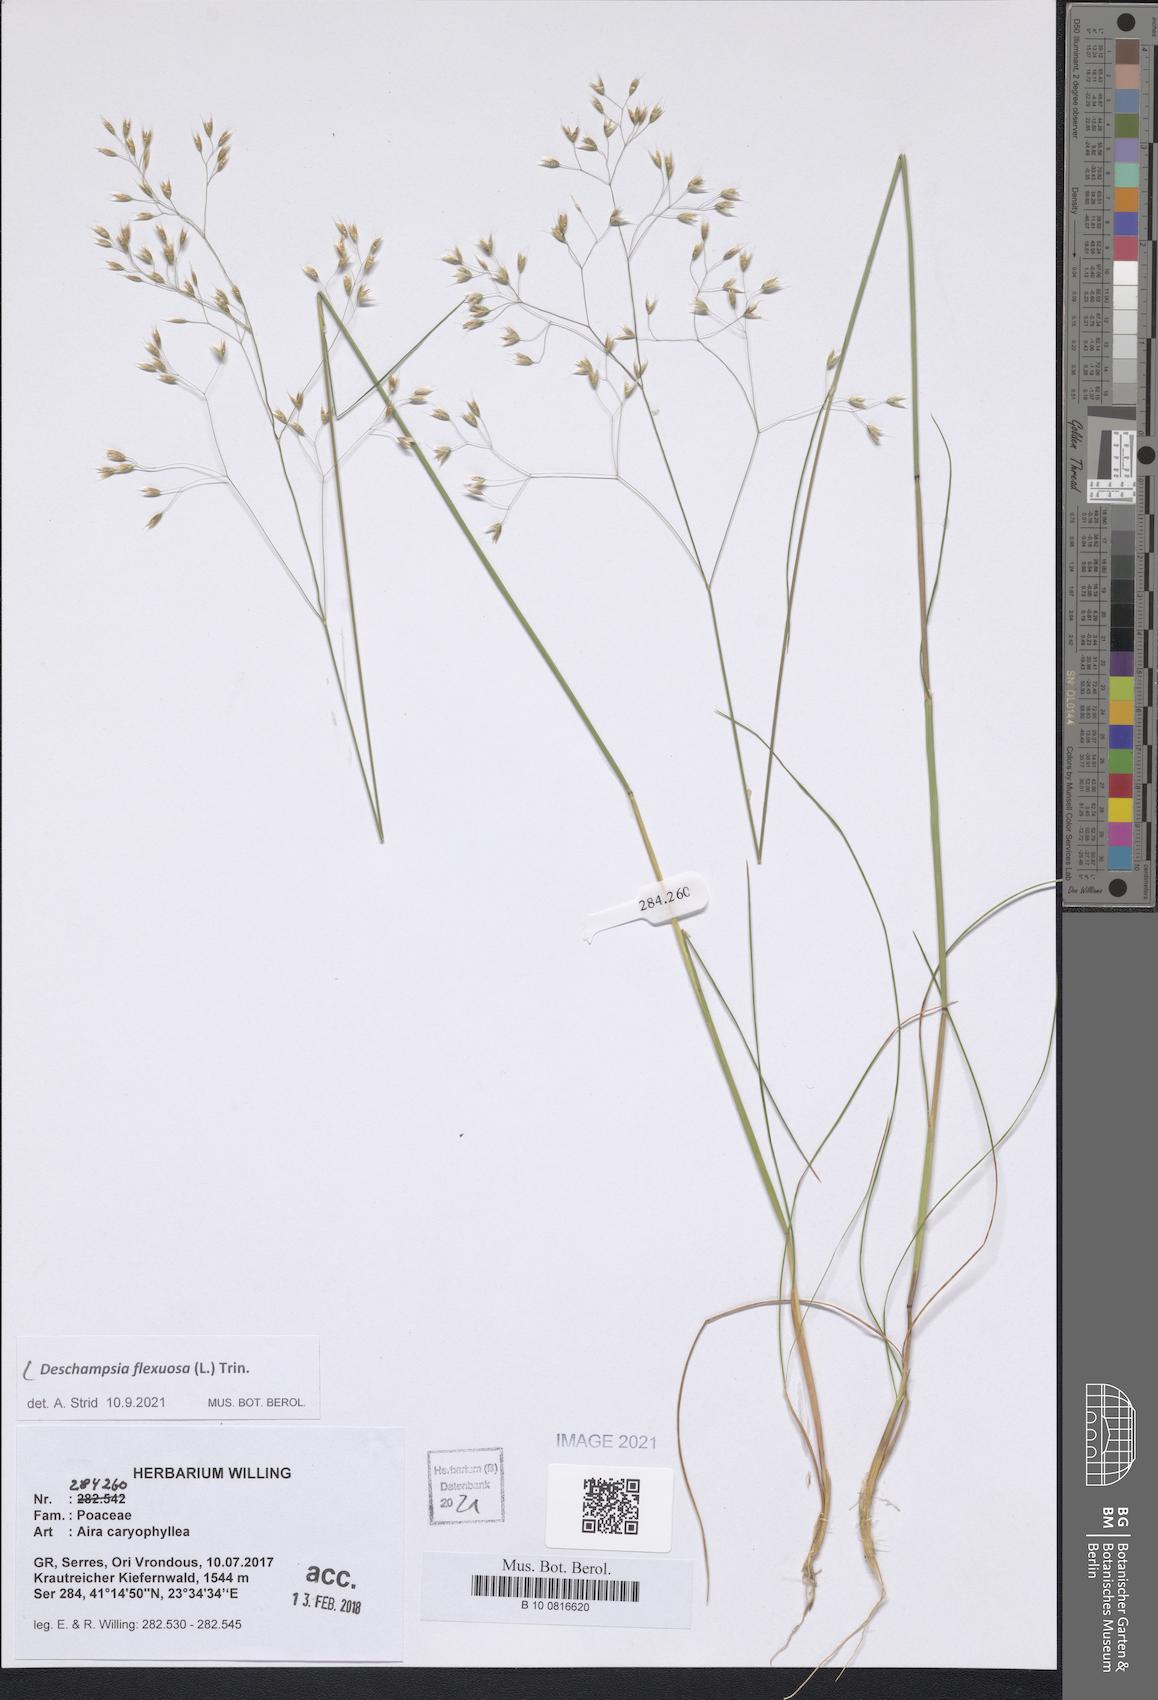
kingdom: Plantae
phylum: Tracheophyta
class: Liliopsida
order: Poales
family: Poaceae
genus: Avenella
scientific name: Avenella flexuosa
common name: Wavy hairgrass
